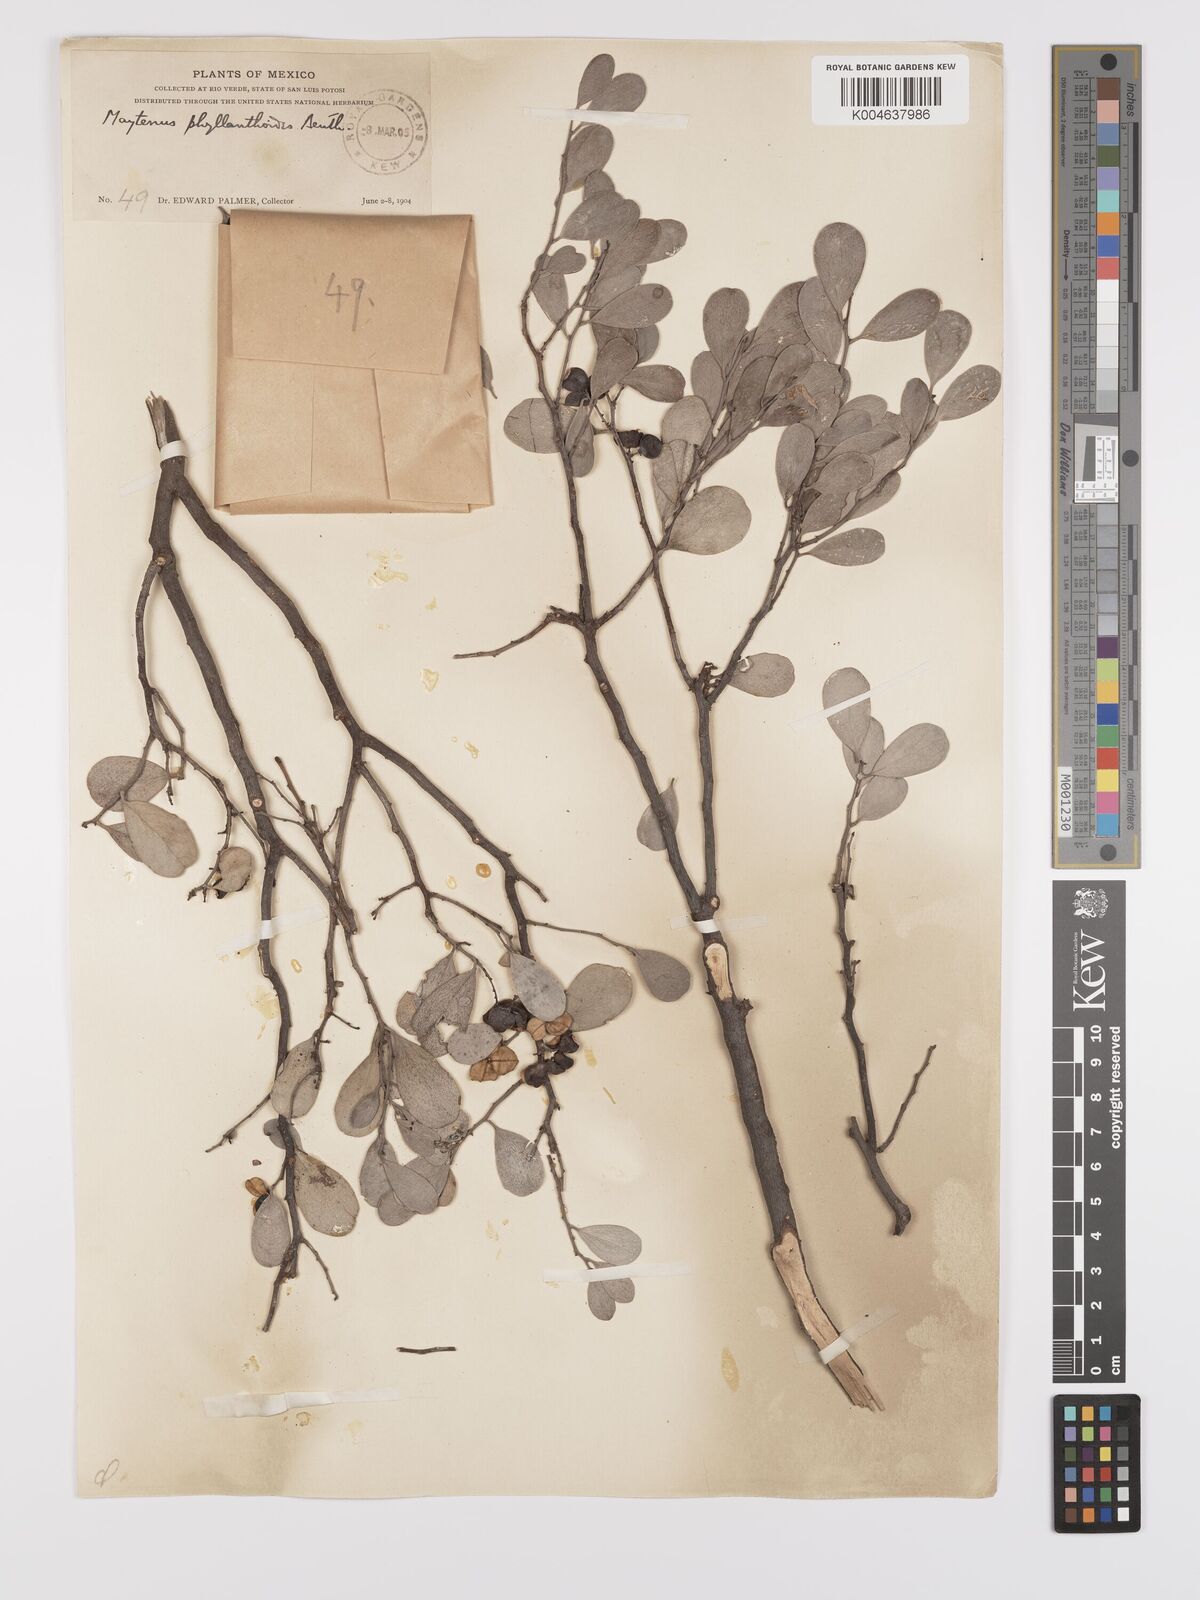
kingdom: Plantae
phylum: Tracheophyta
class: Magnoliopsida
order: Celastrales
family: Celastraceae
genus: Tricerma
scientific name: Tricerma phyllanthoides
